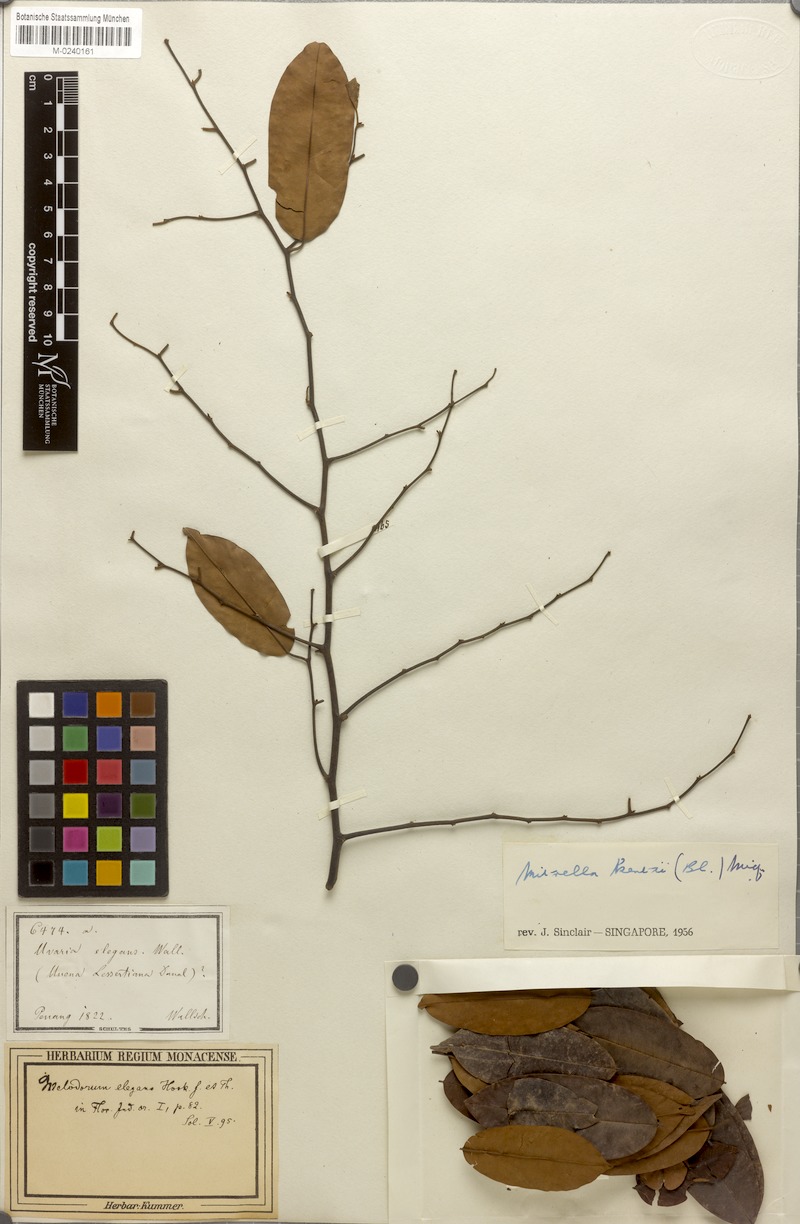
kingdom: Plantae
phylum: Tracheophyta
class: Magnoliopsida
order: Magnoliales
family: Annonaceae
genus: Mitrella
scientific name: Mitrella kentii
